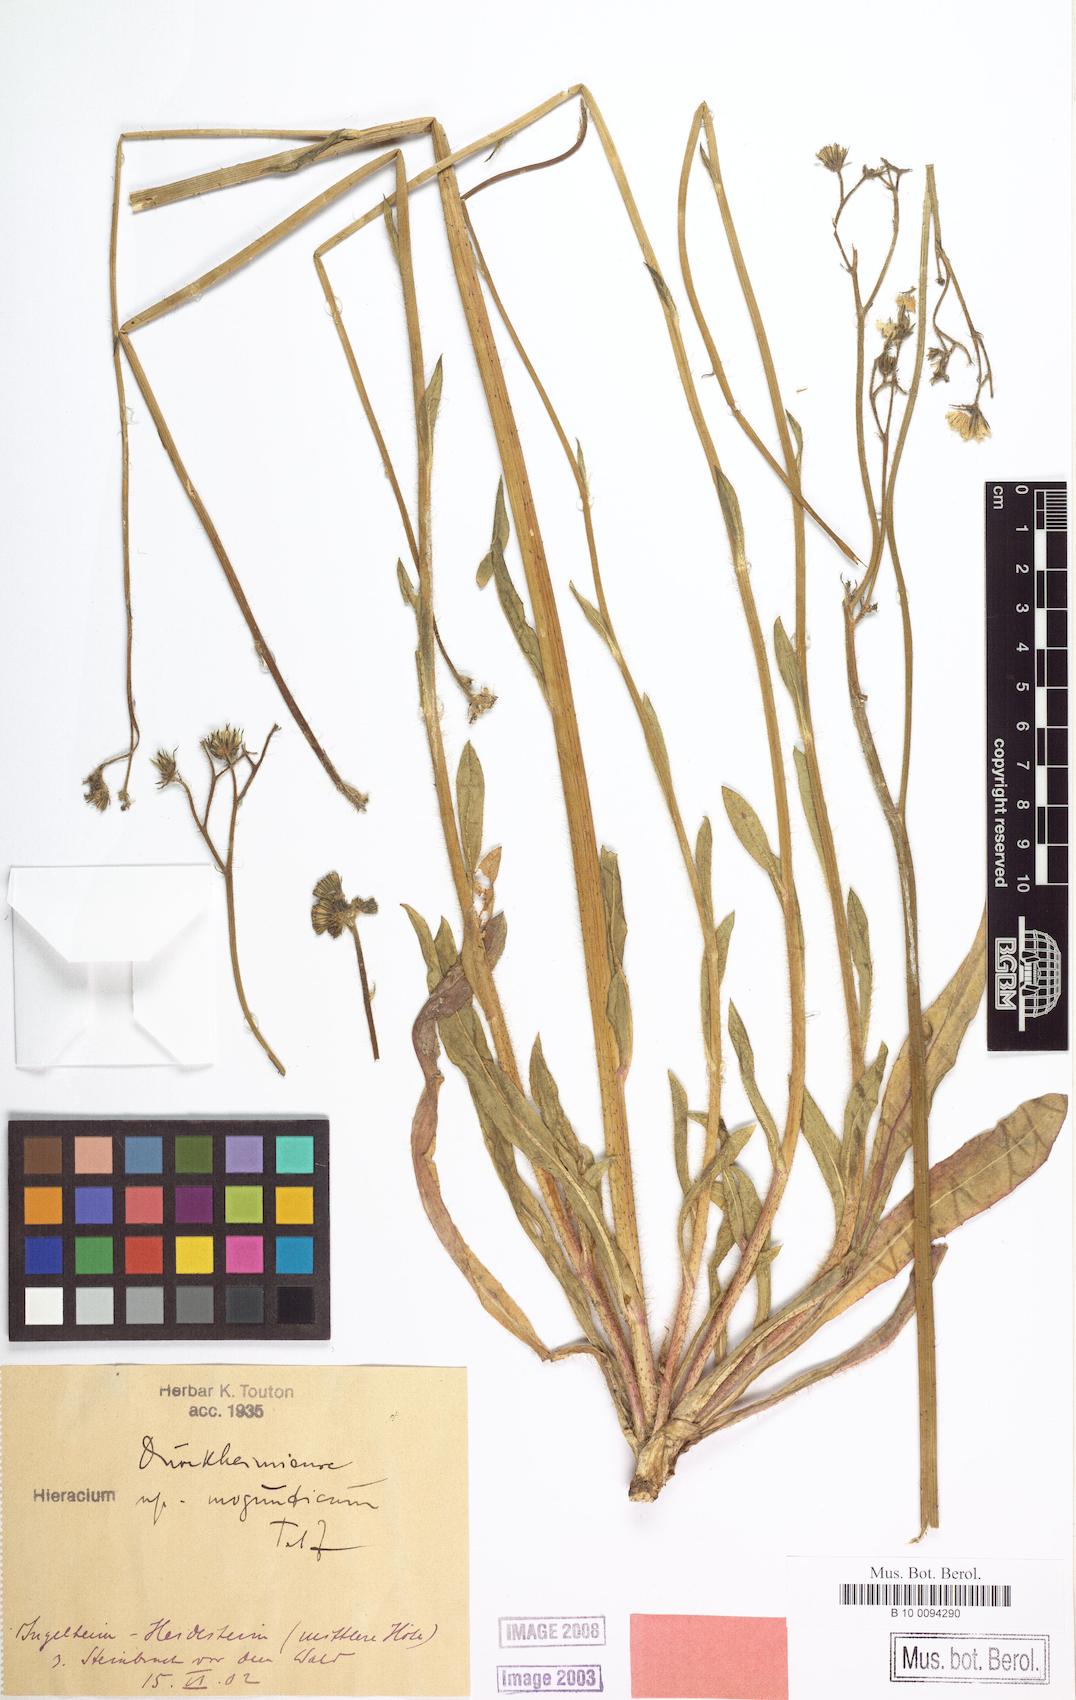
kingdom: Plantae
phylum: Tracheophyta
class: Magnoliopsida
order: Asterales
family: Asteraceae
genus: Pilosella
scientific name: Pilosella duerkhemiensis
